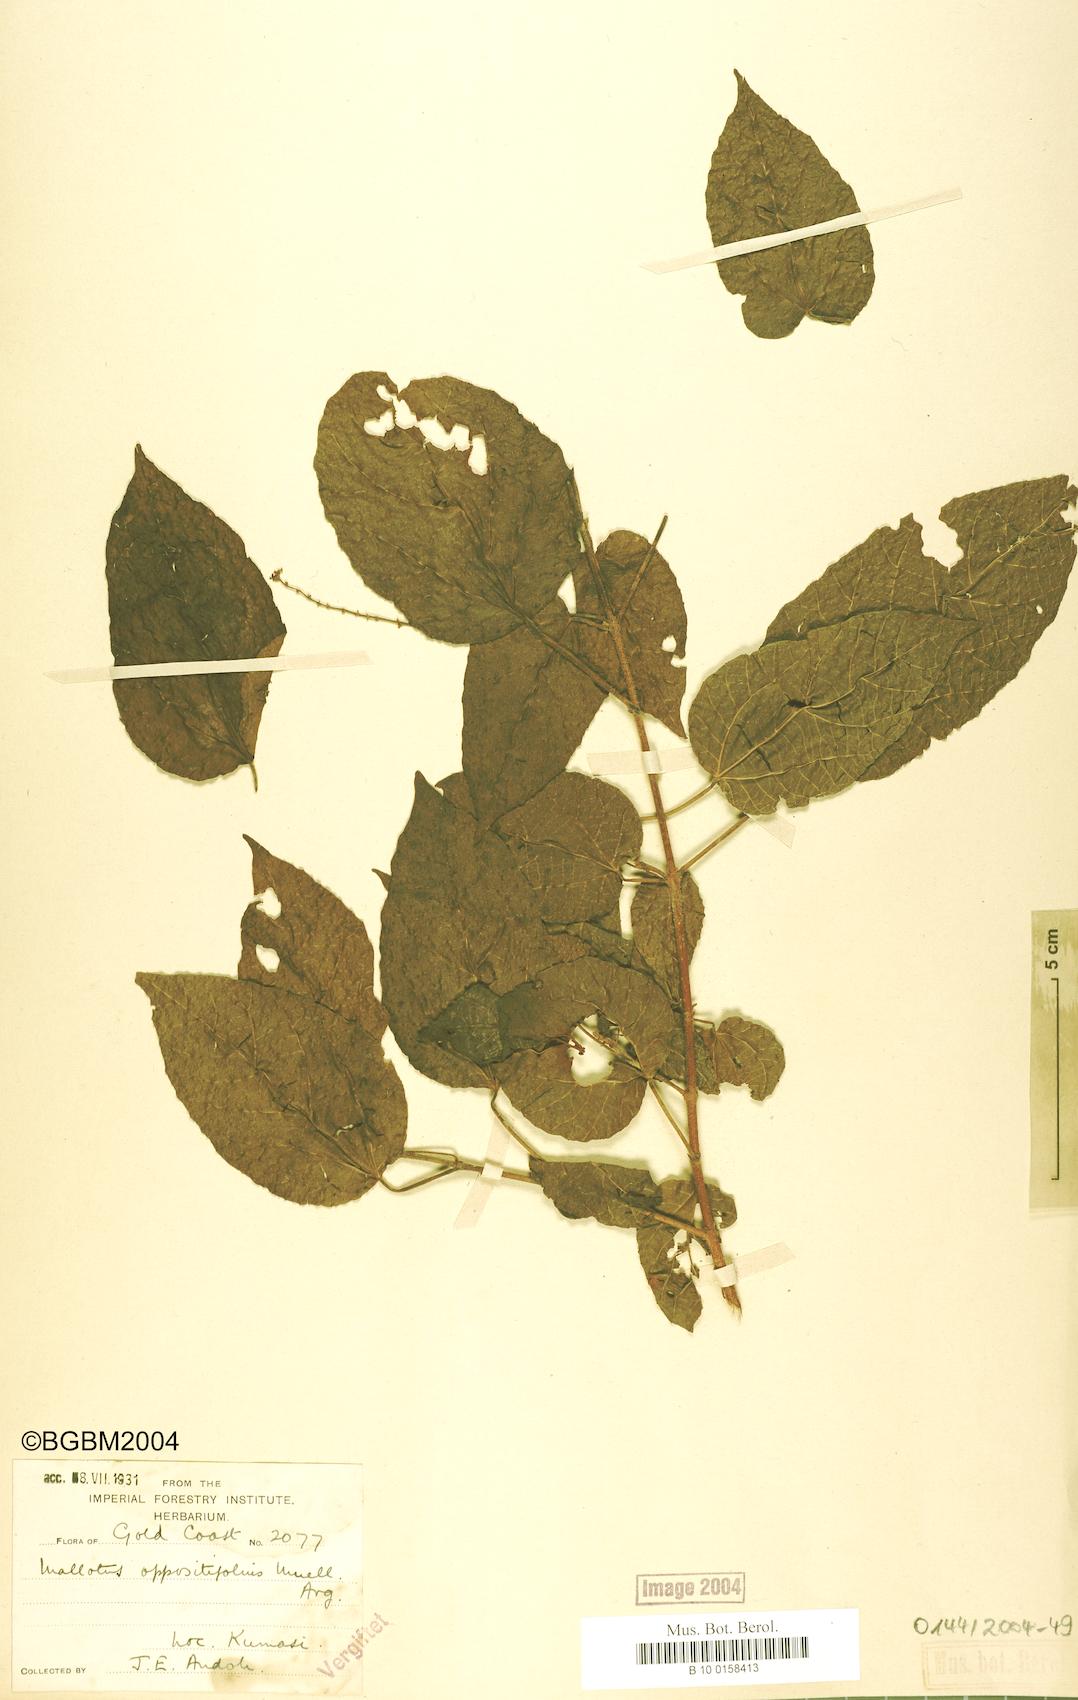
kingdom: Plantae
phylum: Tracheophyta
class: Magnoliopsida
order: Malpighiales
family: Euphorbiaceae
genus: Mallotus
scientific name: Mallotus oppositifolius
